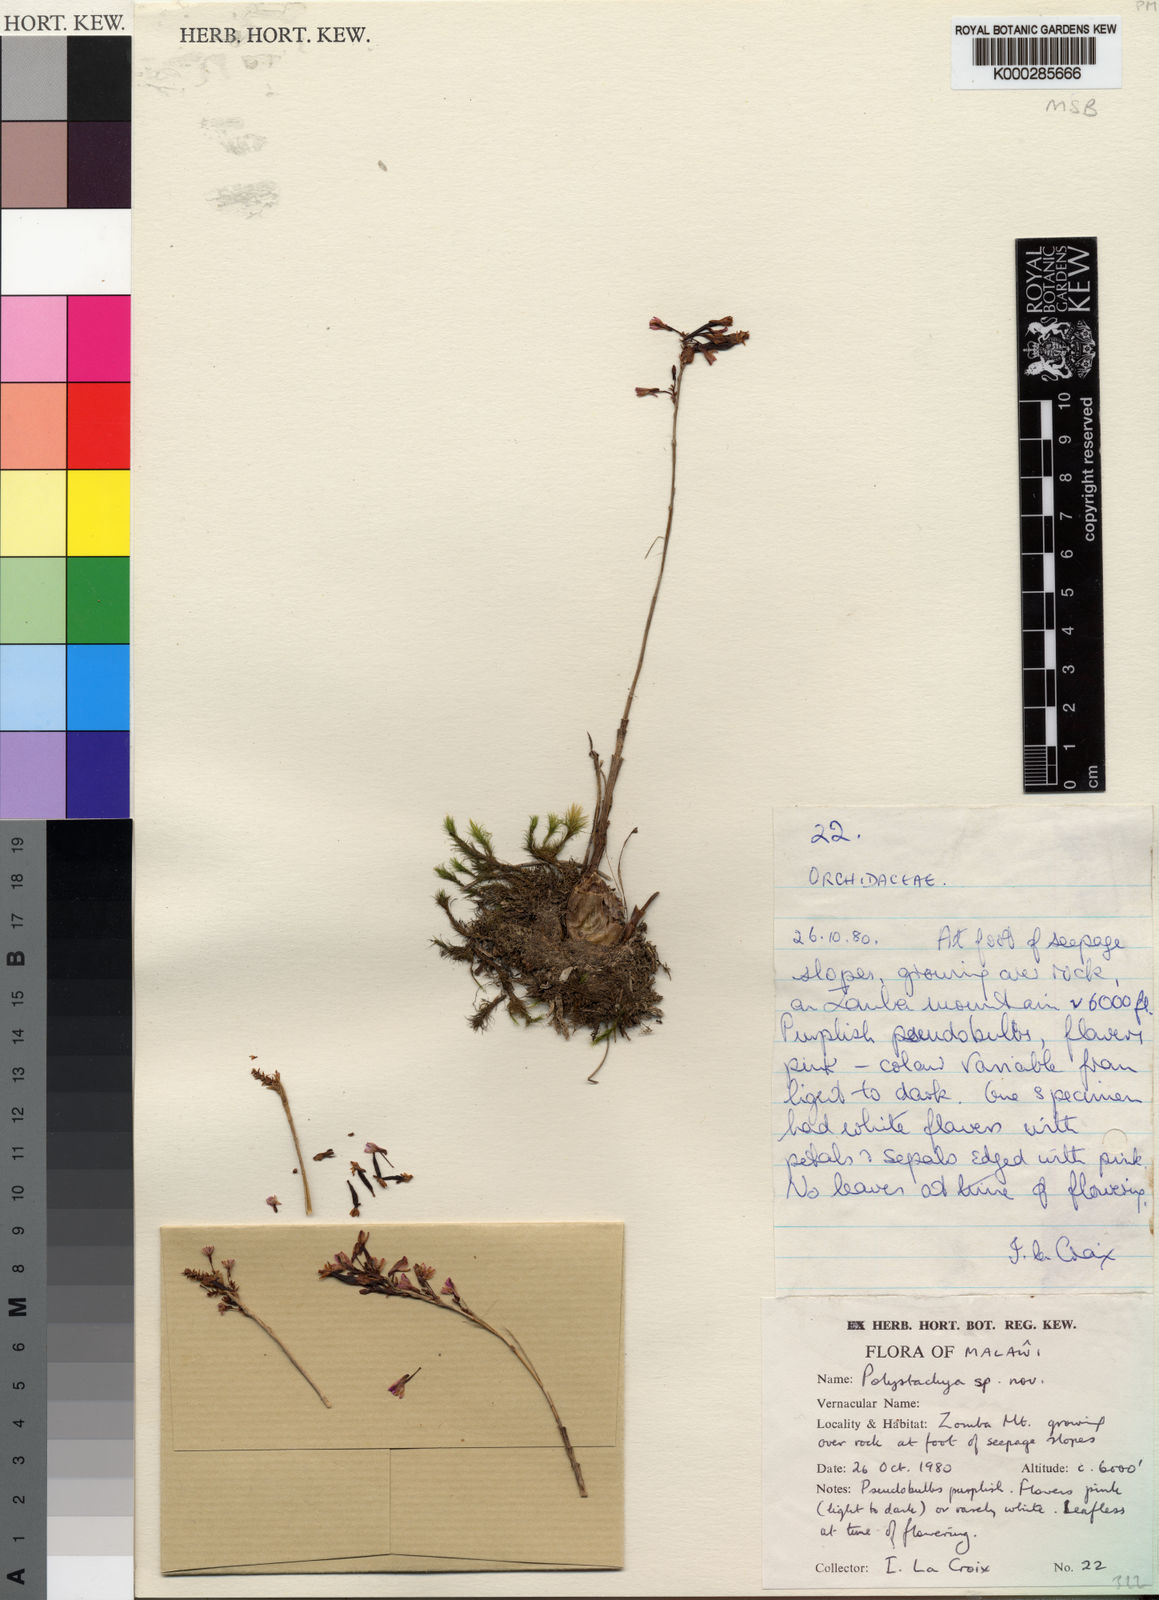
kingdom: Plantae
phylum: Tracheophyta
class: Liliopsida
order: Asparagales
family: Orchidaceae
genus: Polystachya
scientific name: Polystachya songaniensis
